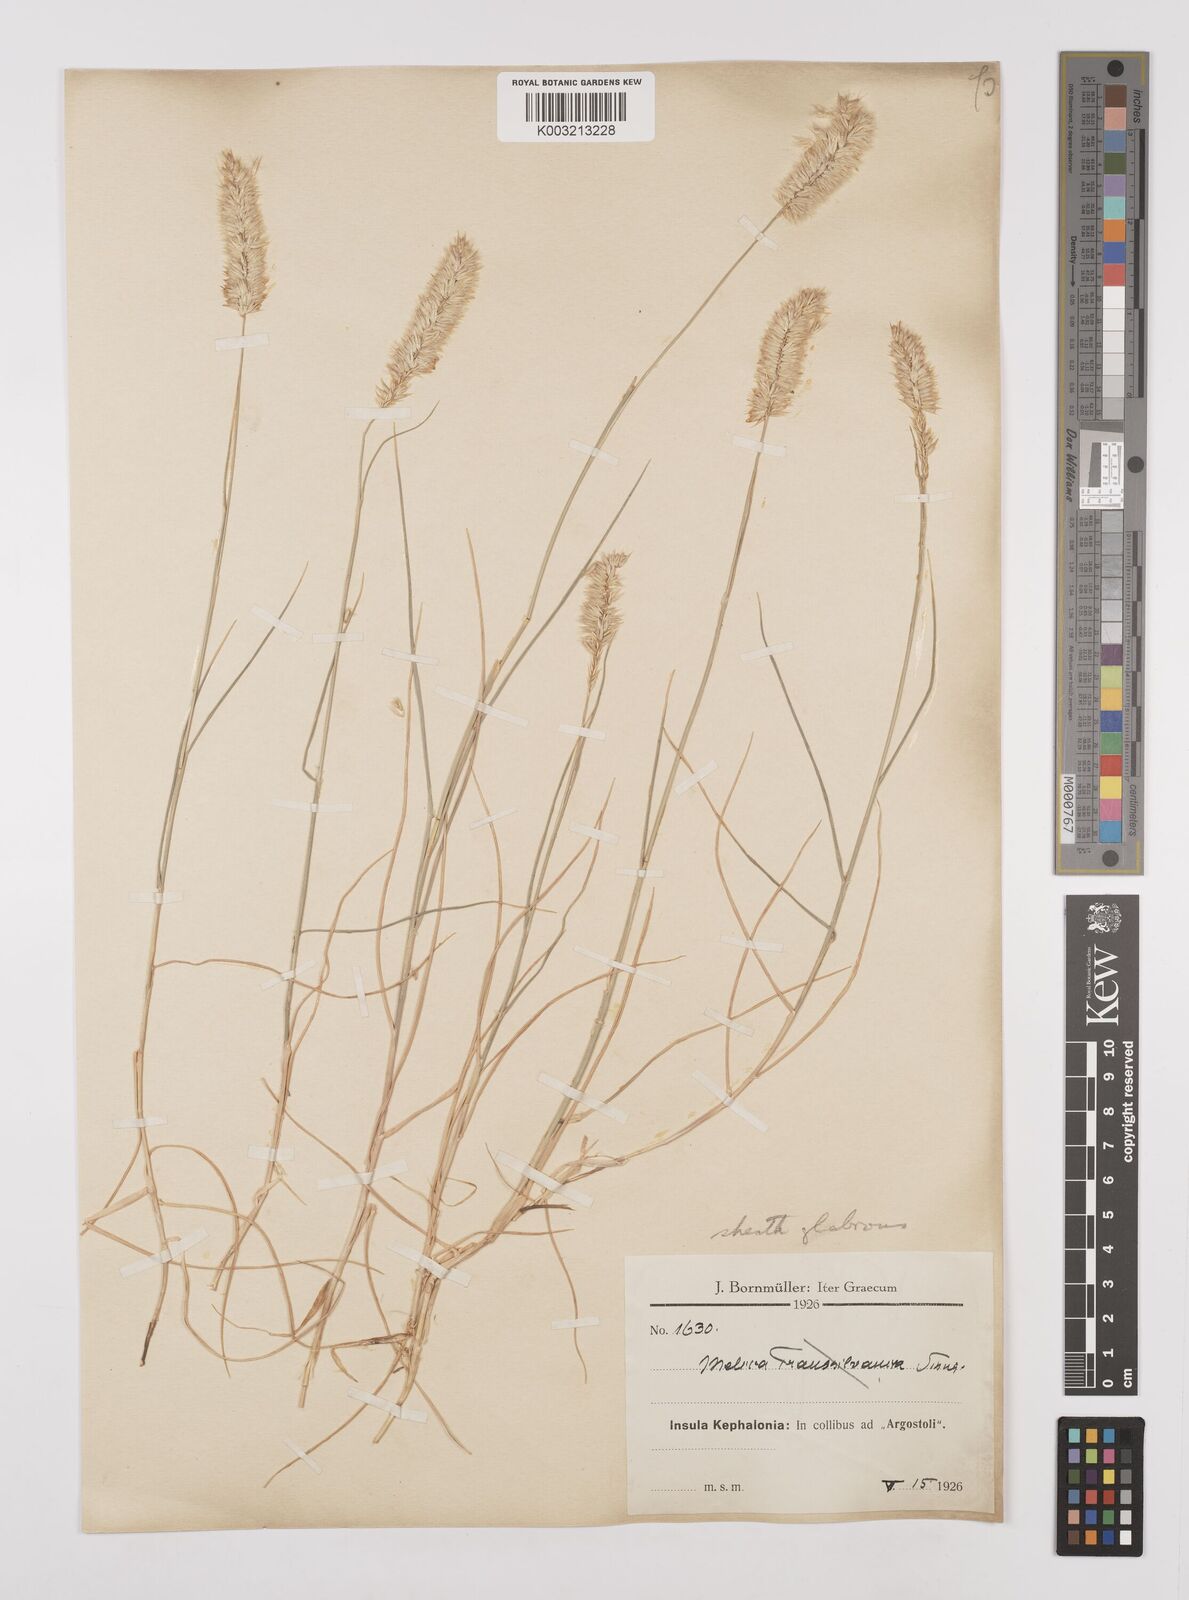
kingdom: Plantae
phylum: Tracheophyta
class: Liliopsida
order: Poales
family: Poaceae
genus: Melica
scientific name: Melica ciliata
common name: Hairy melicgrass
